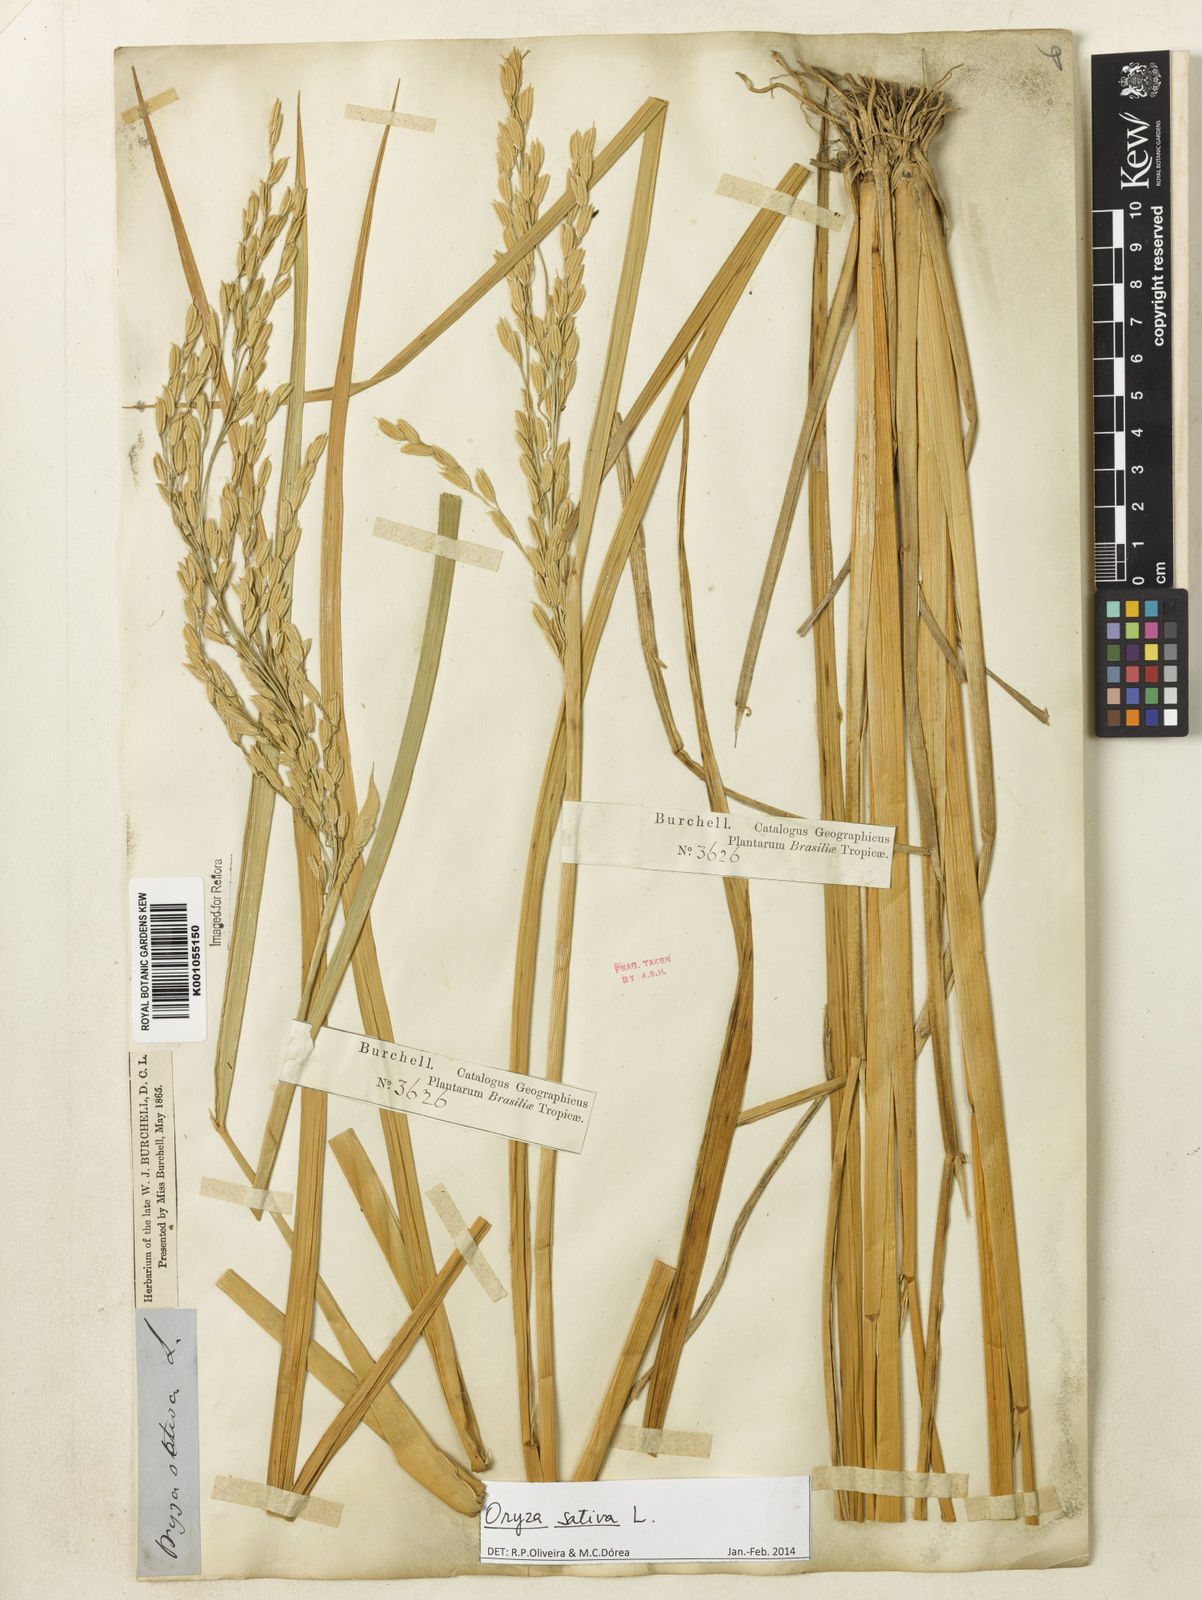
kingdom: Plantae
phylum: Tracheophyta
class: Liliopsida
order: Poales
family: Poaceae
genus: Oryza
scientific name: Oryza sativa
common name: Rice
